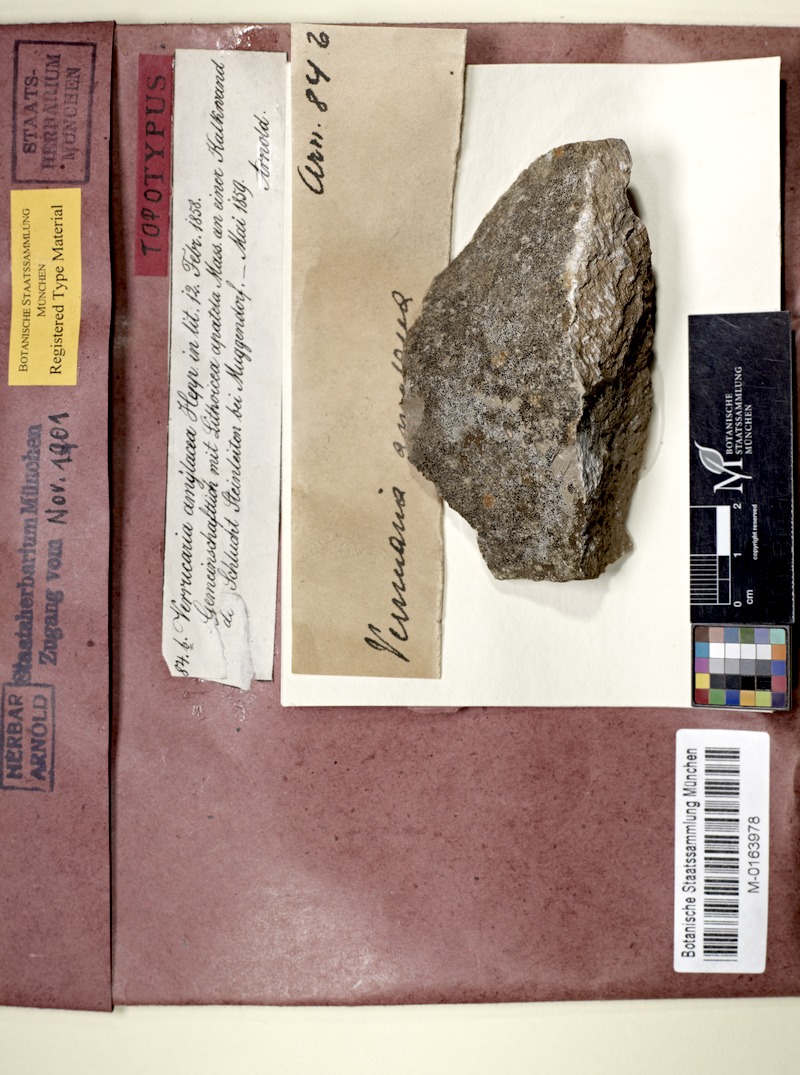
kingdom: Fungi
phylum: Ascomycota
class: Eurotiomycetes
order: Verrucariales
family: Verrucariaceae
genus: Verrucaria
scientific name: Verrucaria amylacea
